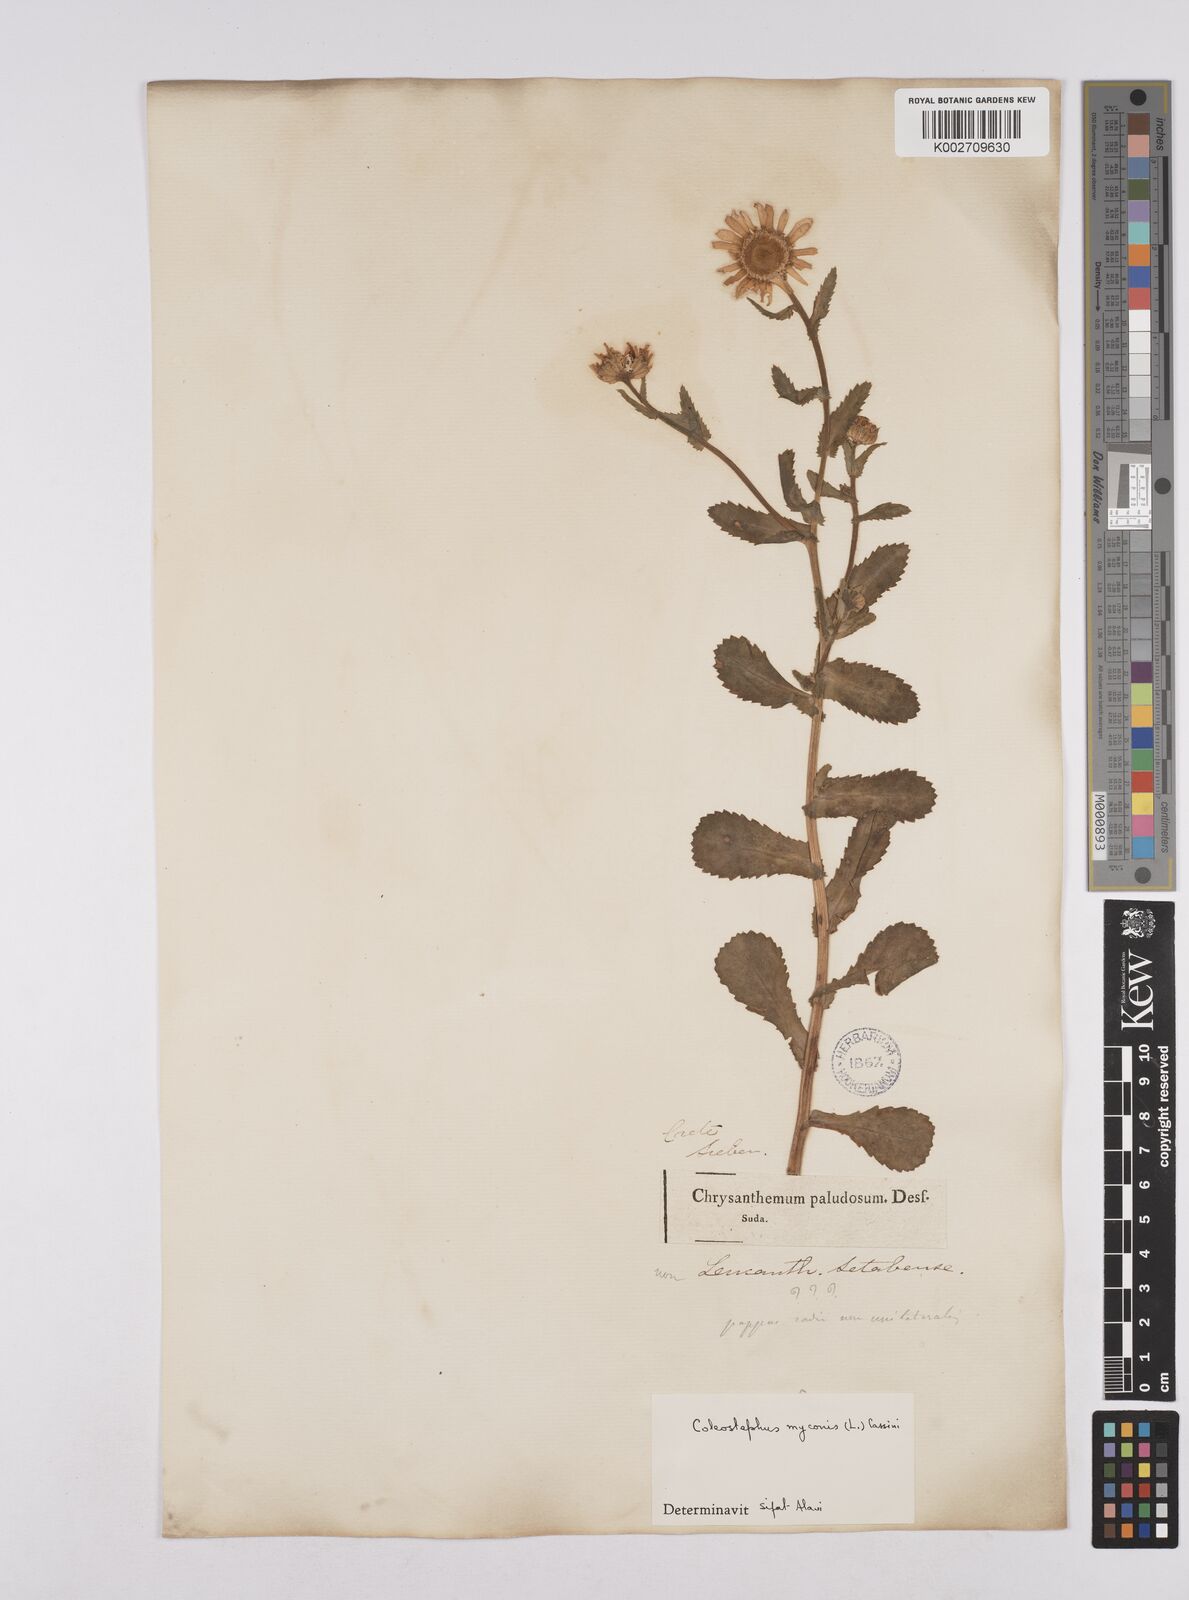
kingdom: Plantae
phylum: Tracheophyta
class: Magnoliopsida
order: Asterales
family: Asteraceae
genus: Coleostephus
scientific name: Coleostephus paludosus
